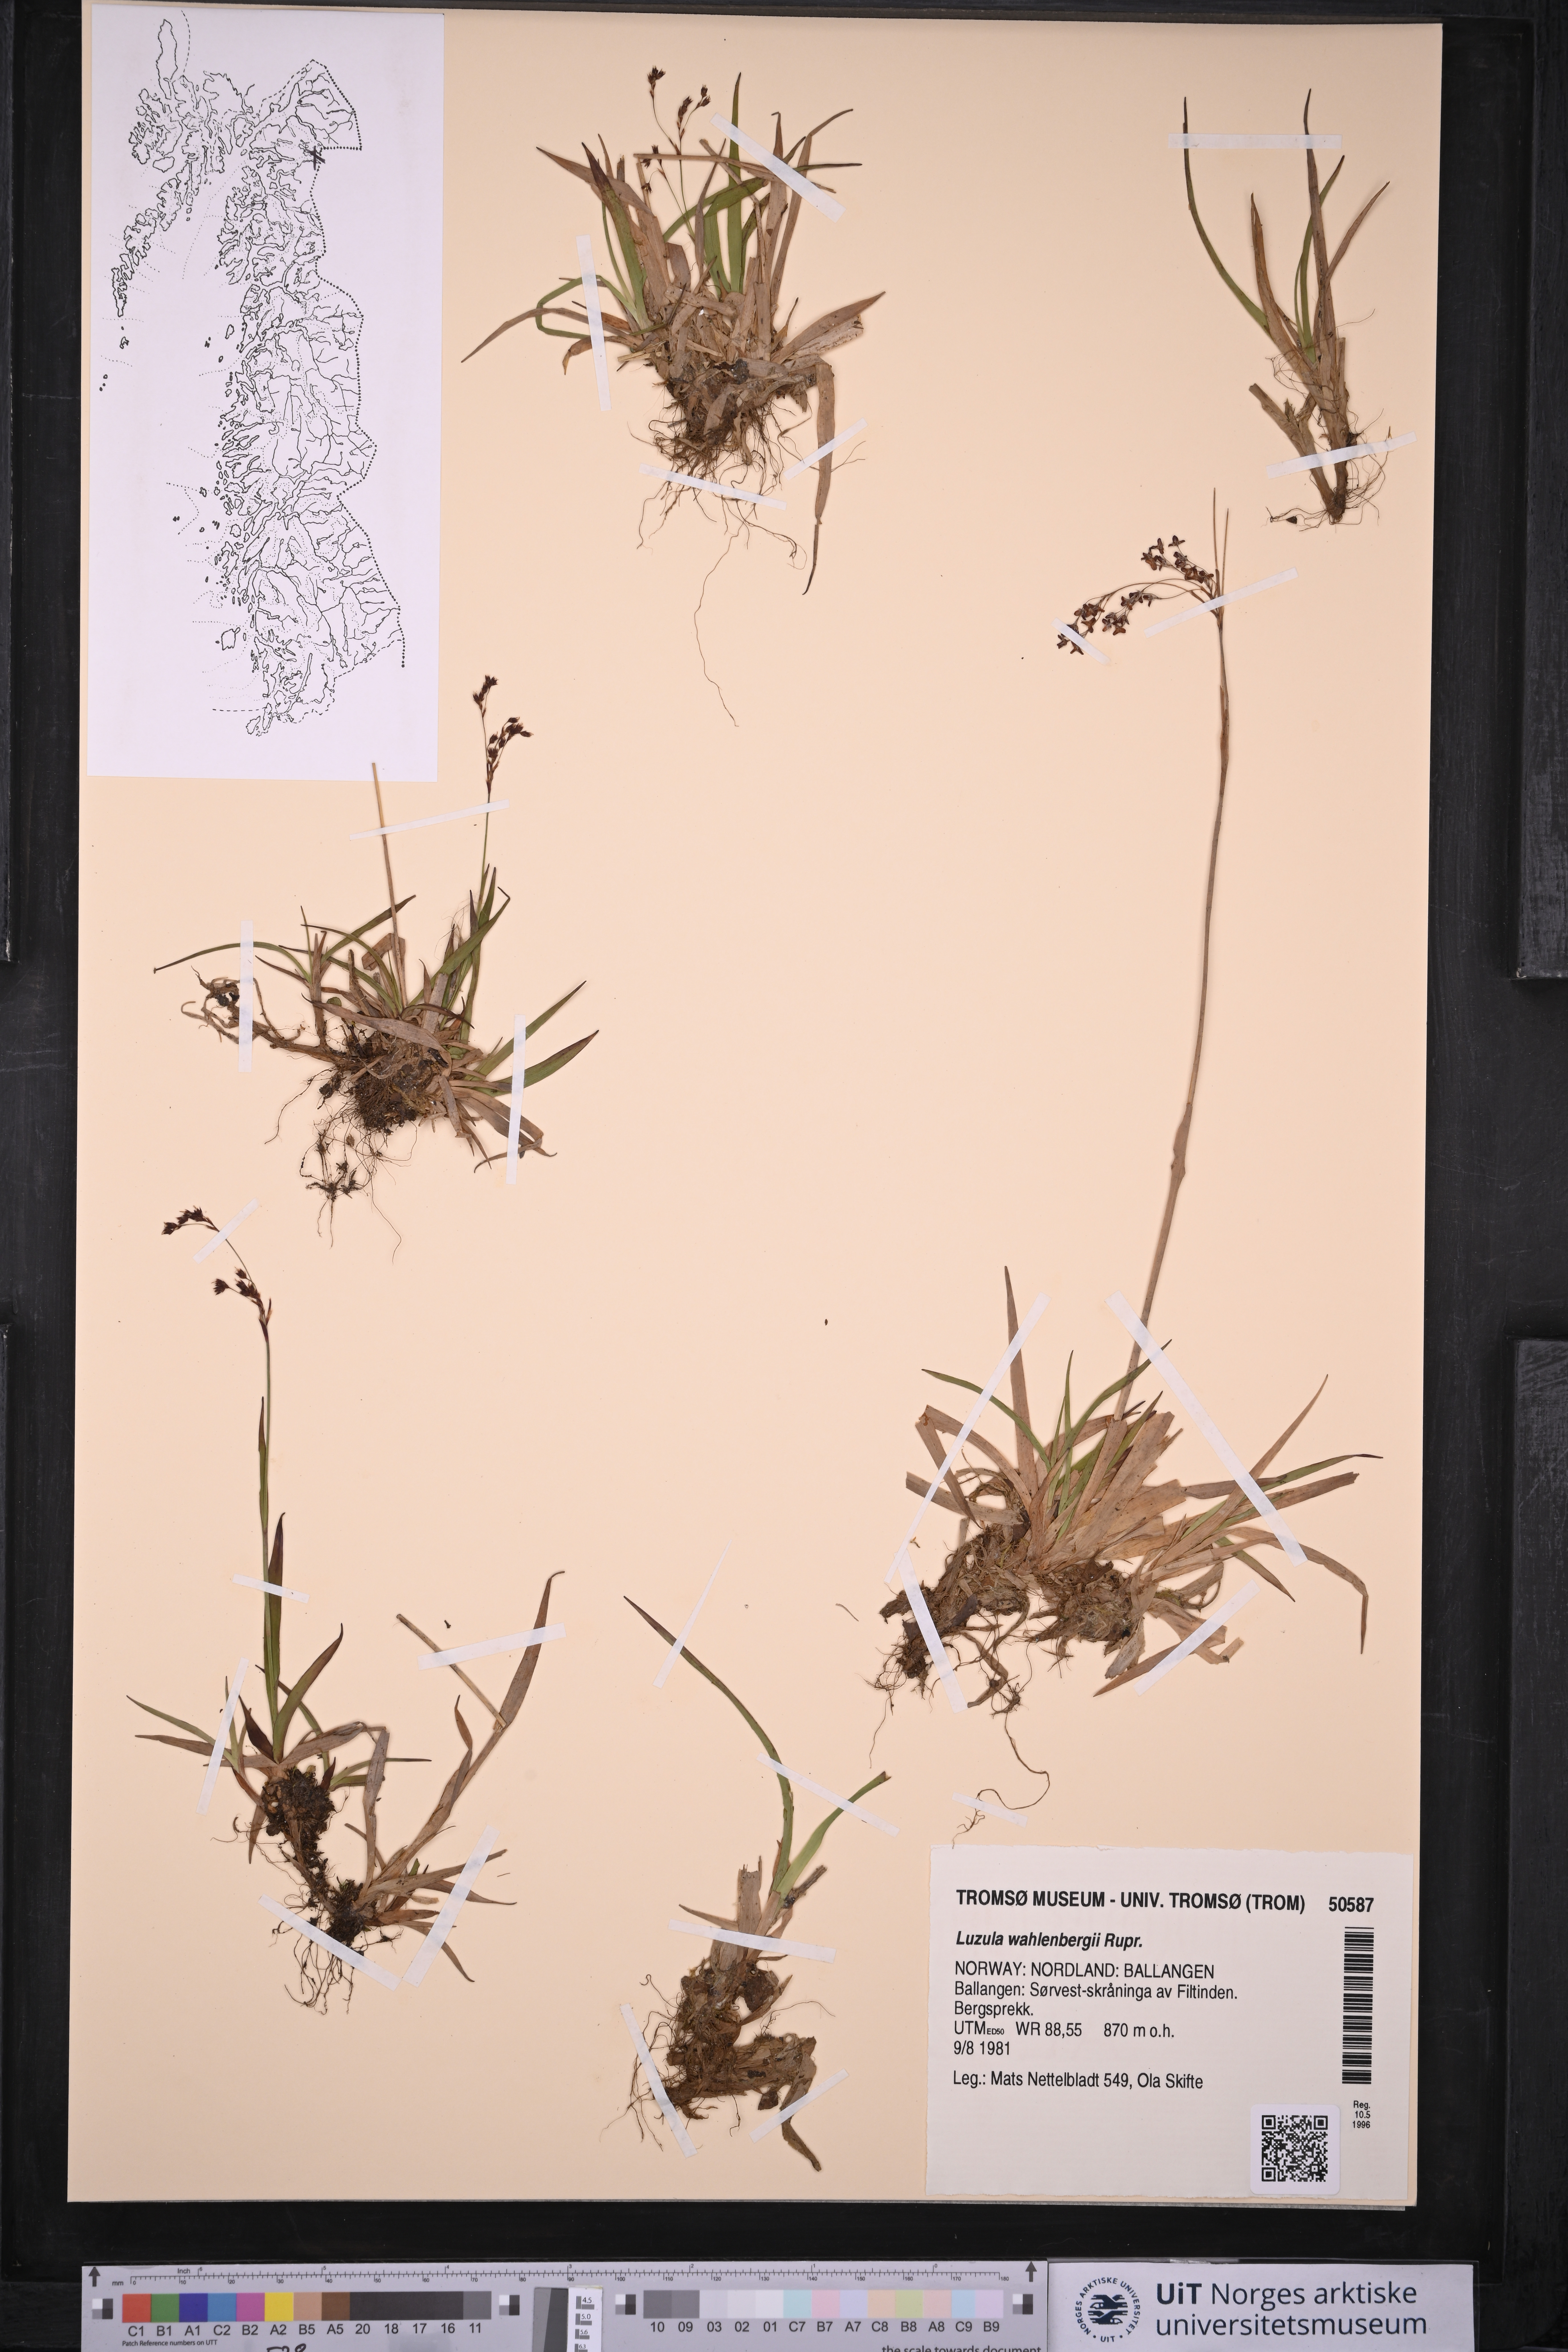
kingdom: Plantae
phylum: Tracheophyta
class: Liliopsida
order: Poales
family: Juncaceae
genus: Luzula
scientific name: Luzula wahlenbergii
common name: Wahlenberg's wood-rush
